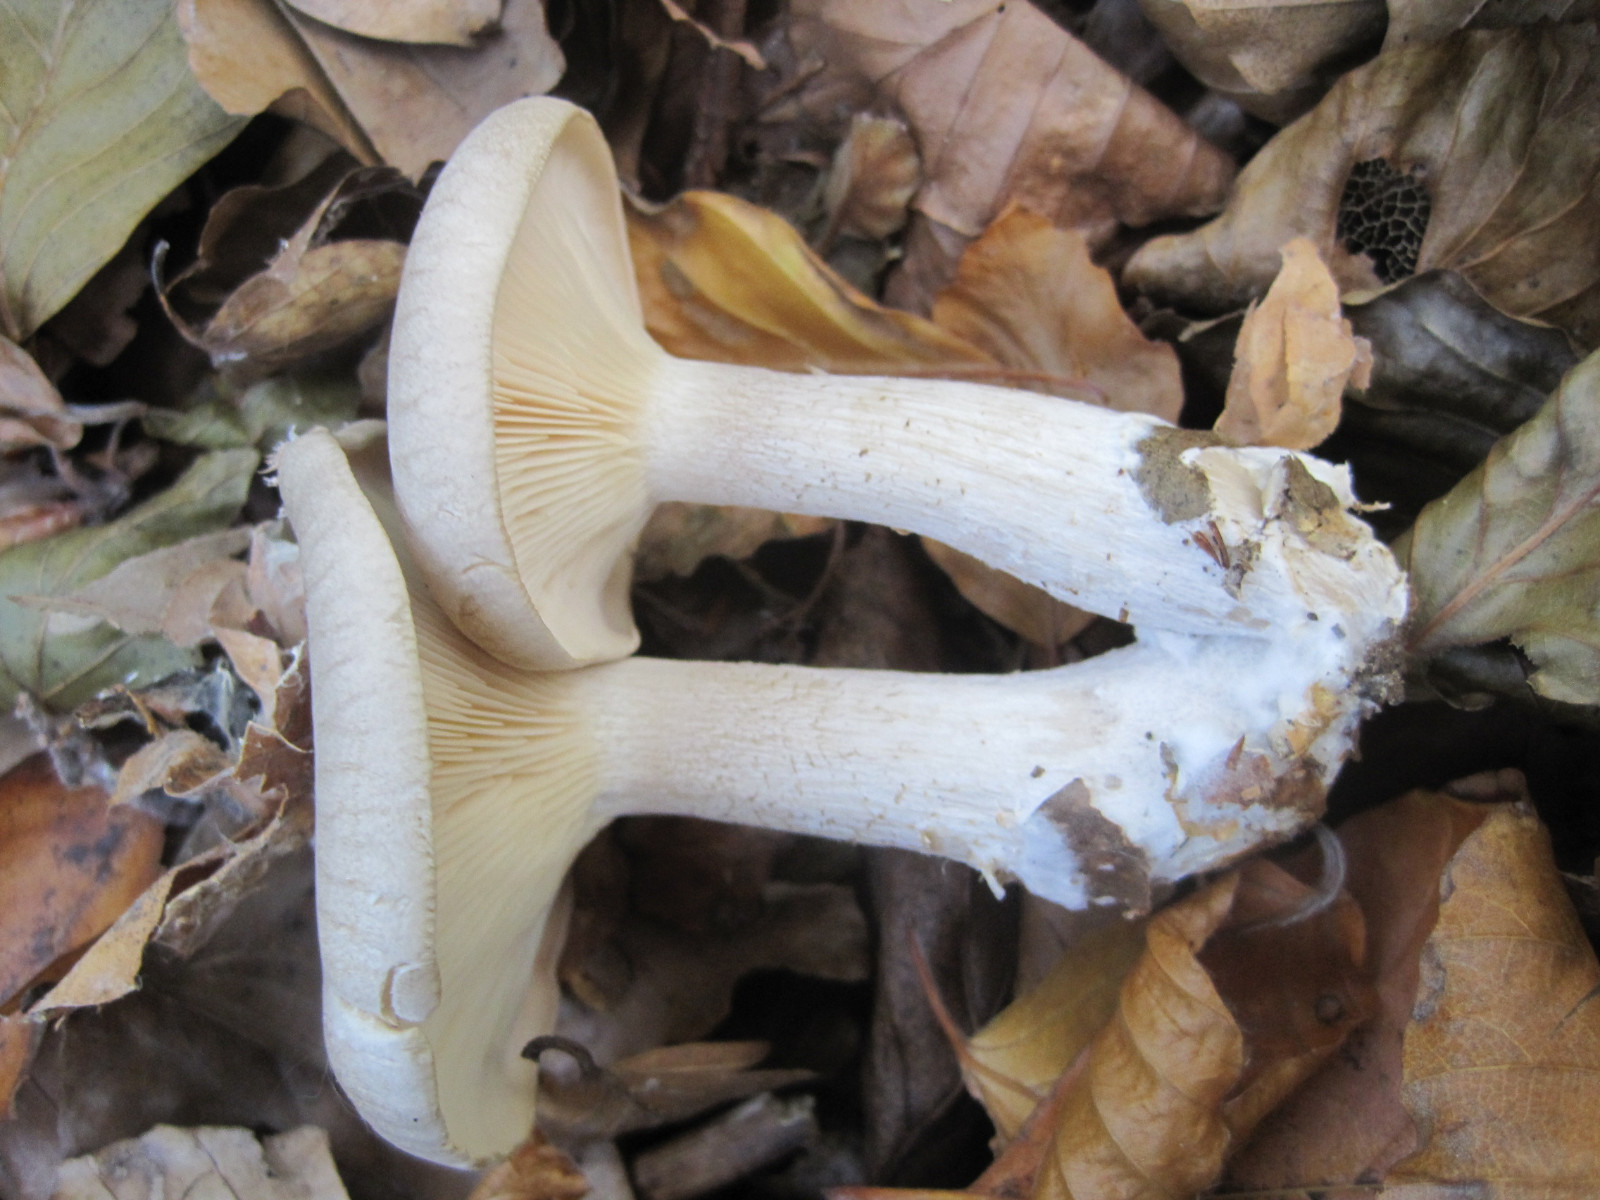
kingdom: Fungi
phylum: Basidiomycota
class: Agaricomycetes
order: Agaricales
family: Tricholomataceae
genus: Clitocybe
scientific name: Clitocybe nebularis
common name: tåge-tragthat
